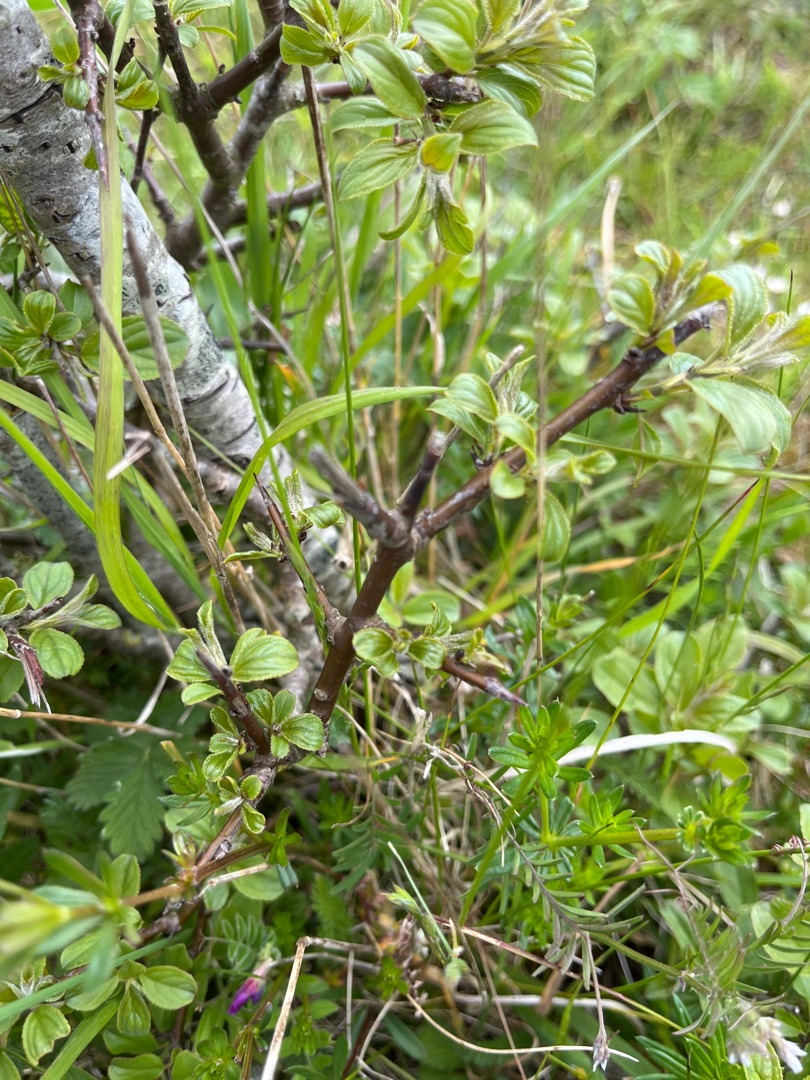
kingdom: Plantae
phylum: Tracheophyta
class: Magnoliopsida
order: Rosales
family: Rhamnaceae
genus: Rhamnus
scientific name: Rhamnus cathartica
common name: Vrietorn
